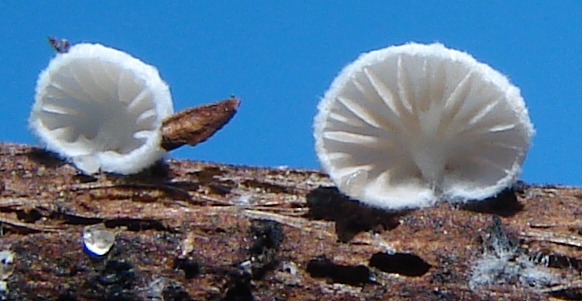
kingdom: Fungi
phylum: Basidiomycota
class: Agaricomycetes
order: Agaricales
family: Entolomataceae
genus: Clitopilus
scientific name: Clitopilus hobsonii
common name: Miller's oysterling
